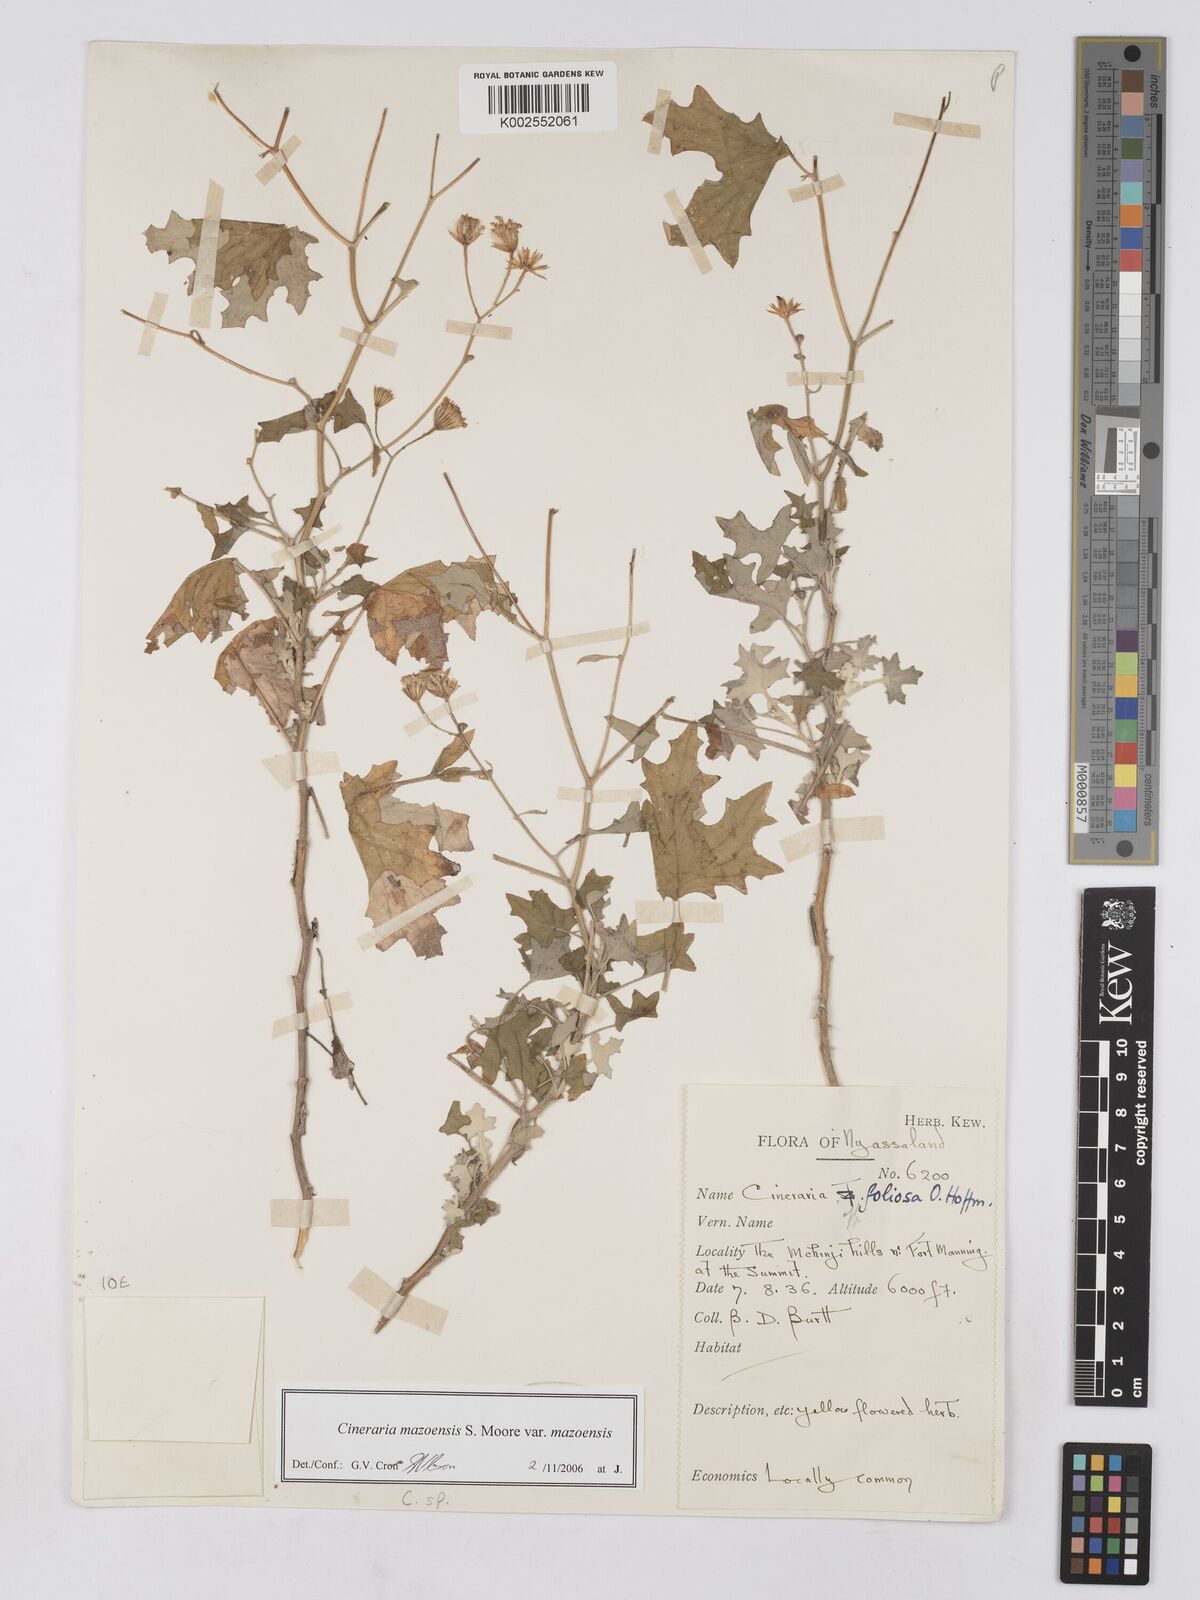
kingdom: Plantae
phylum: Tracheophyta
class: Magnoliopsida
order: Asterales
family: Asteraceae
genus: Cineraria
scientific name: Cineraria mazoensis
